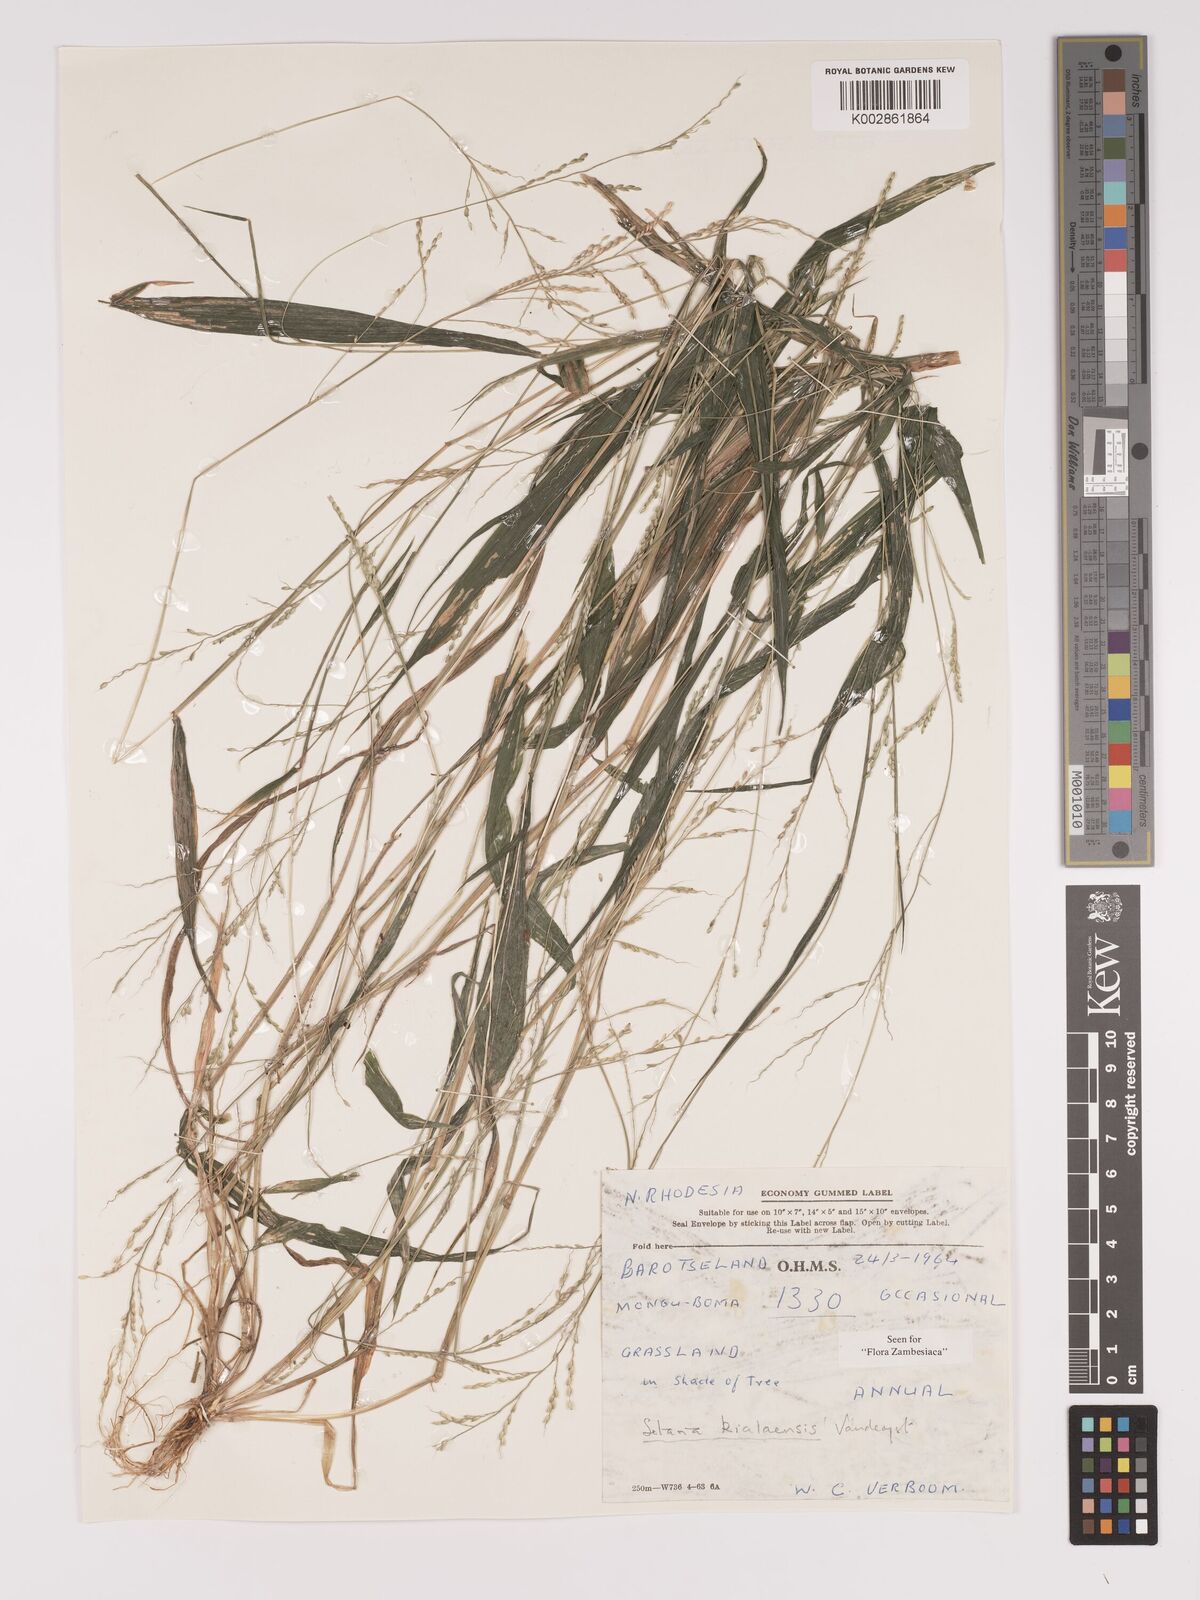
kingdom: Plantae
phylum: Tracheophyta
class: Liliopsida
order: Poales
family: Poaceae
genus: Setaria
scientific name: Setaria homonyma
